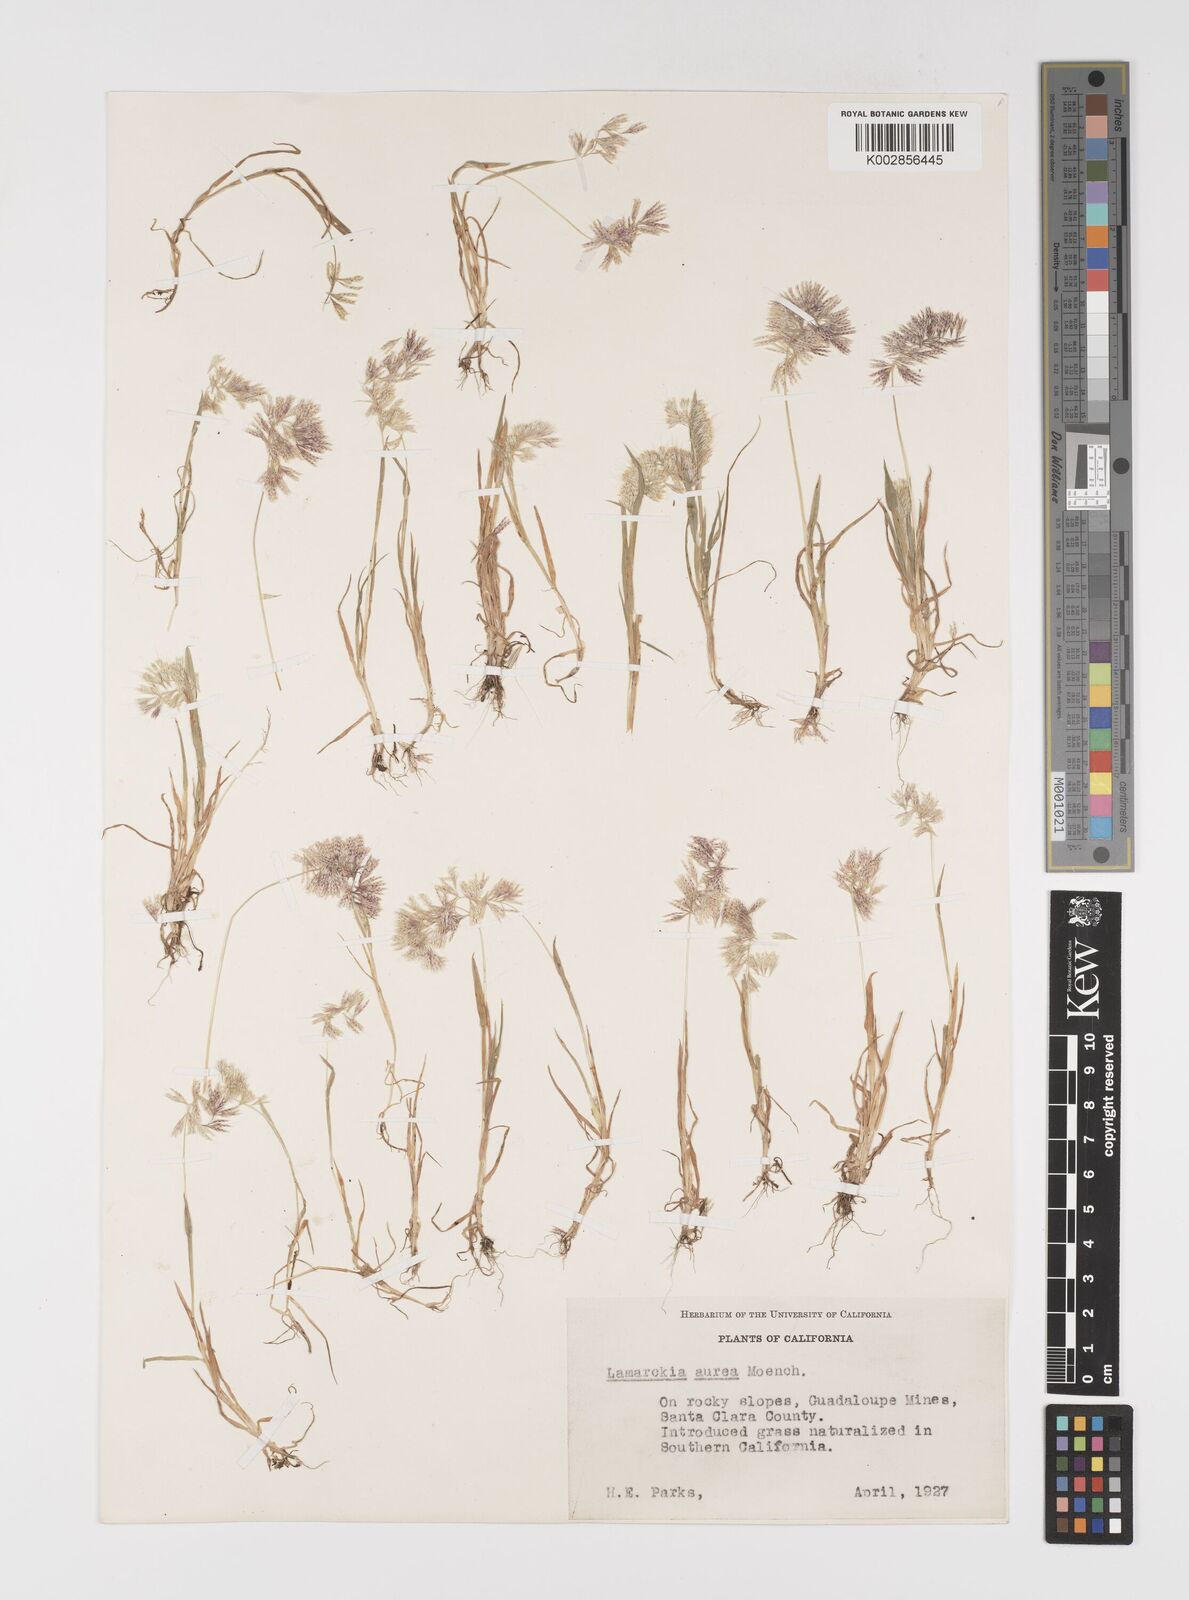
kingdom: Plantae
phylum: Tracheophyta
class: Liliopsida
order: Poales
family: Poaceae
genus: Lamarckia
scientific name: Lamarckia aurea
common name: Golden dog's-tail
